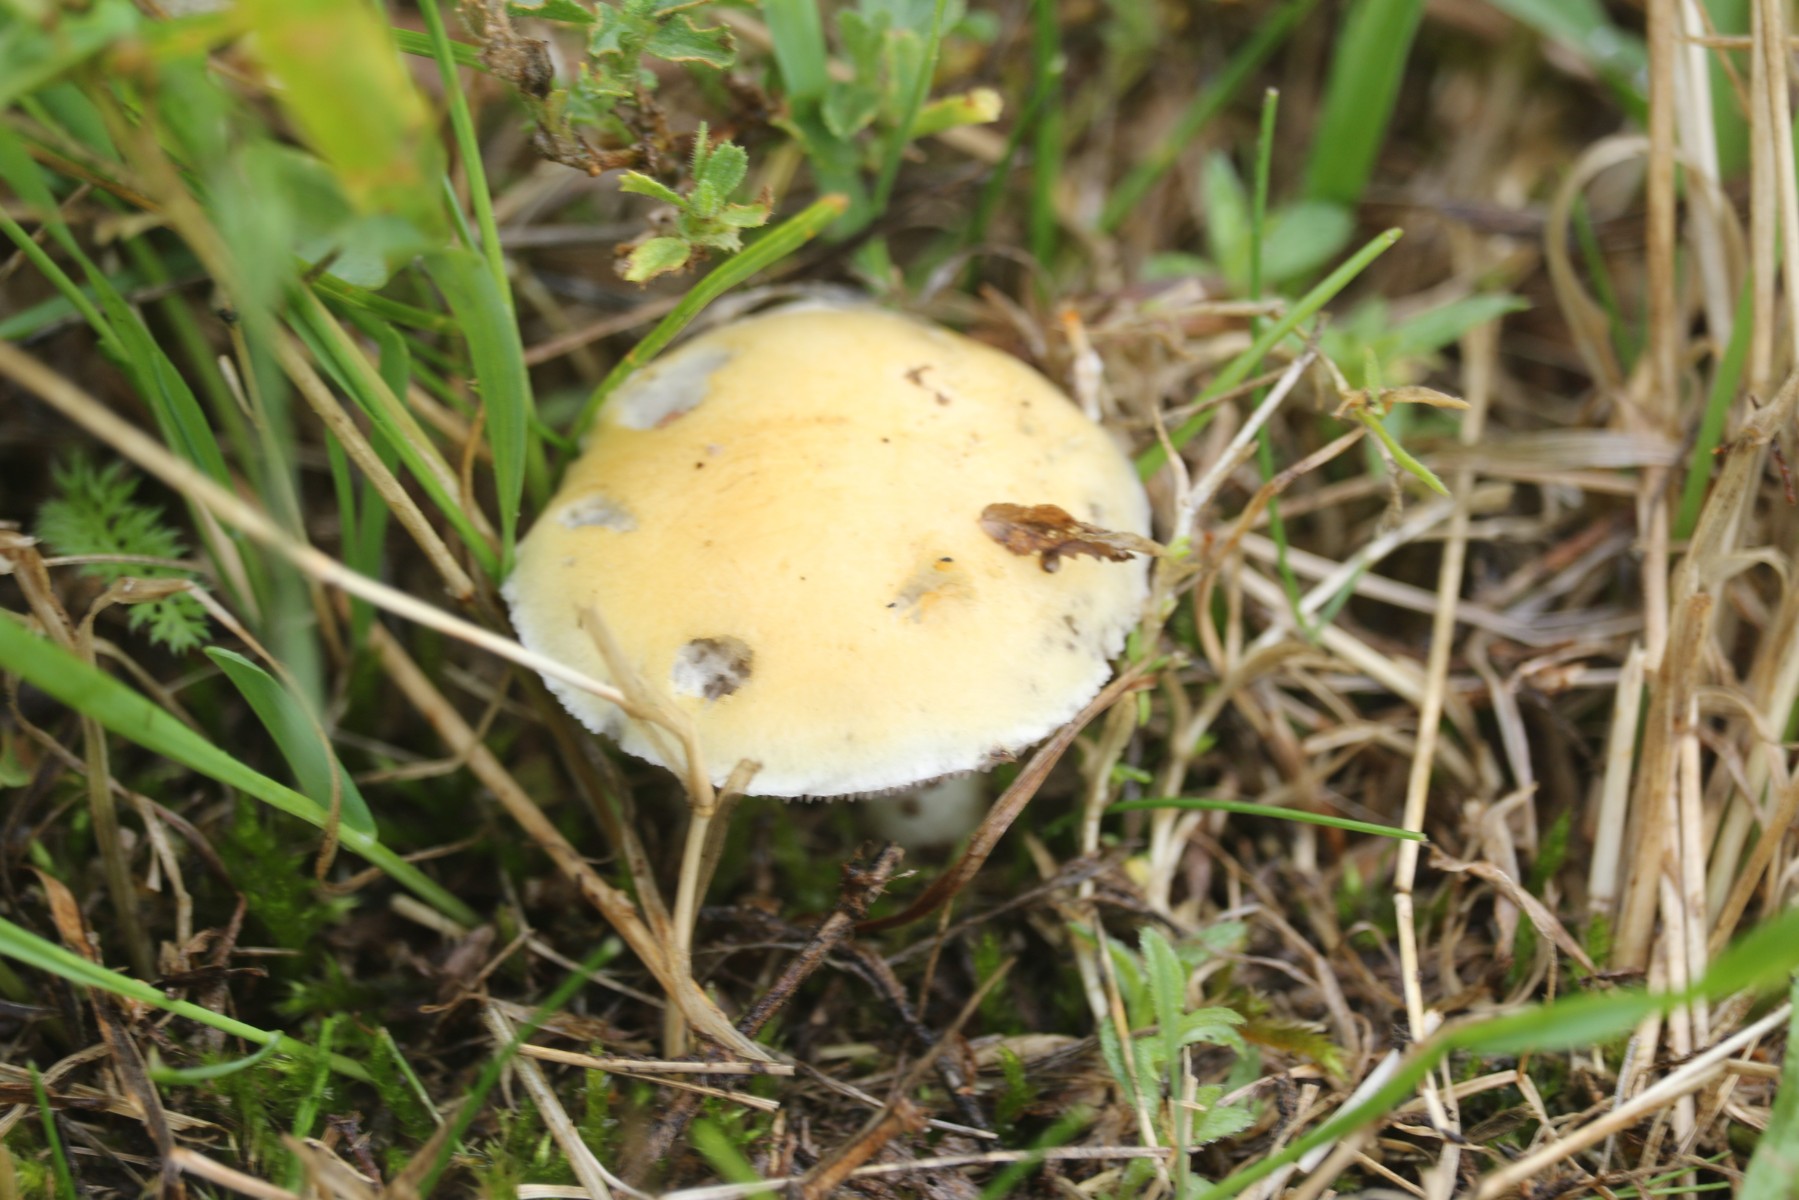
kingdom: Fungi
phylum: Basidiomycota
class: Agaricomycetes
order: Agaricales
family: Hymenogastraceae
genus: Psilocybe
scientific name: Psilocybe coronilla
